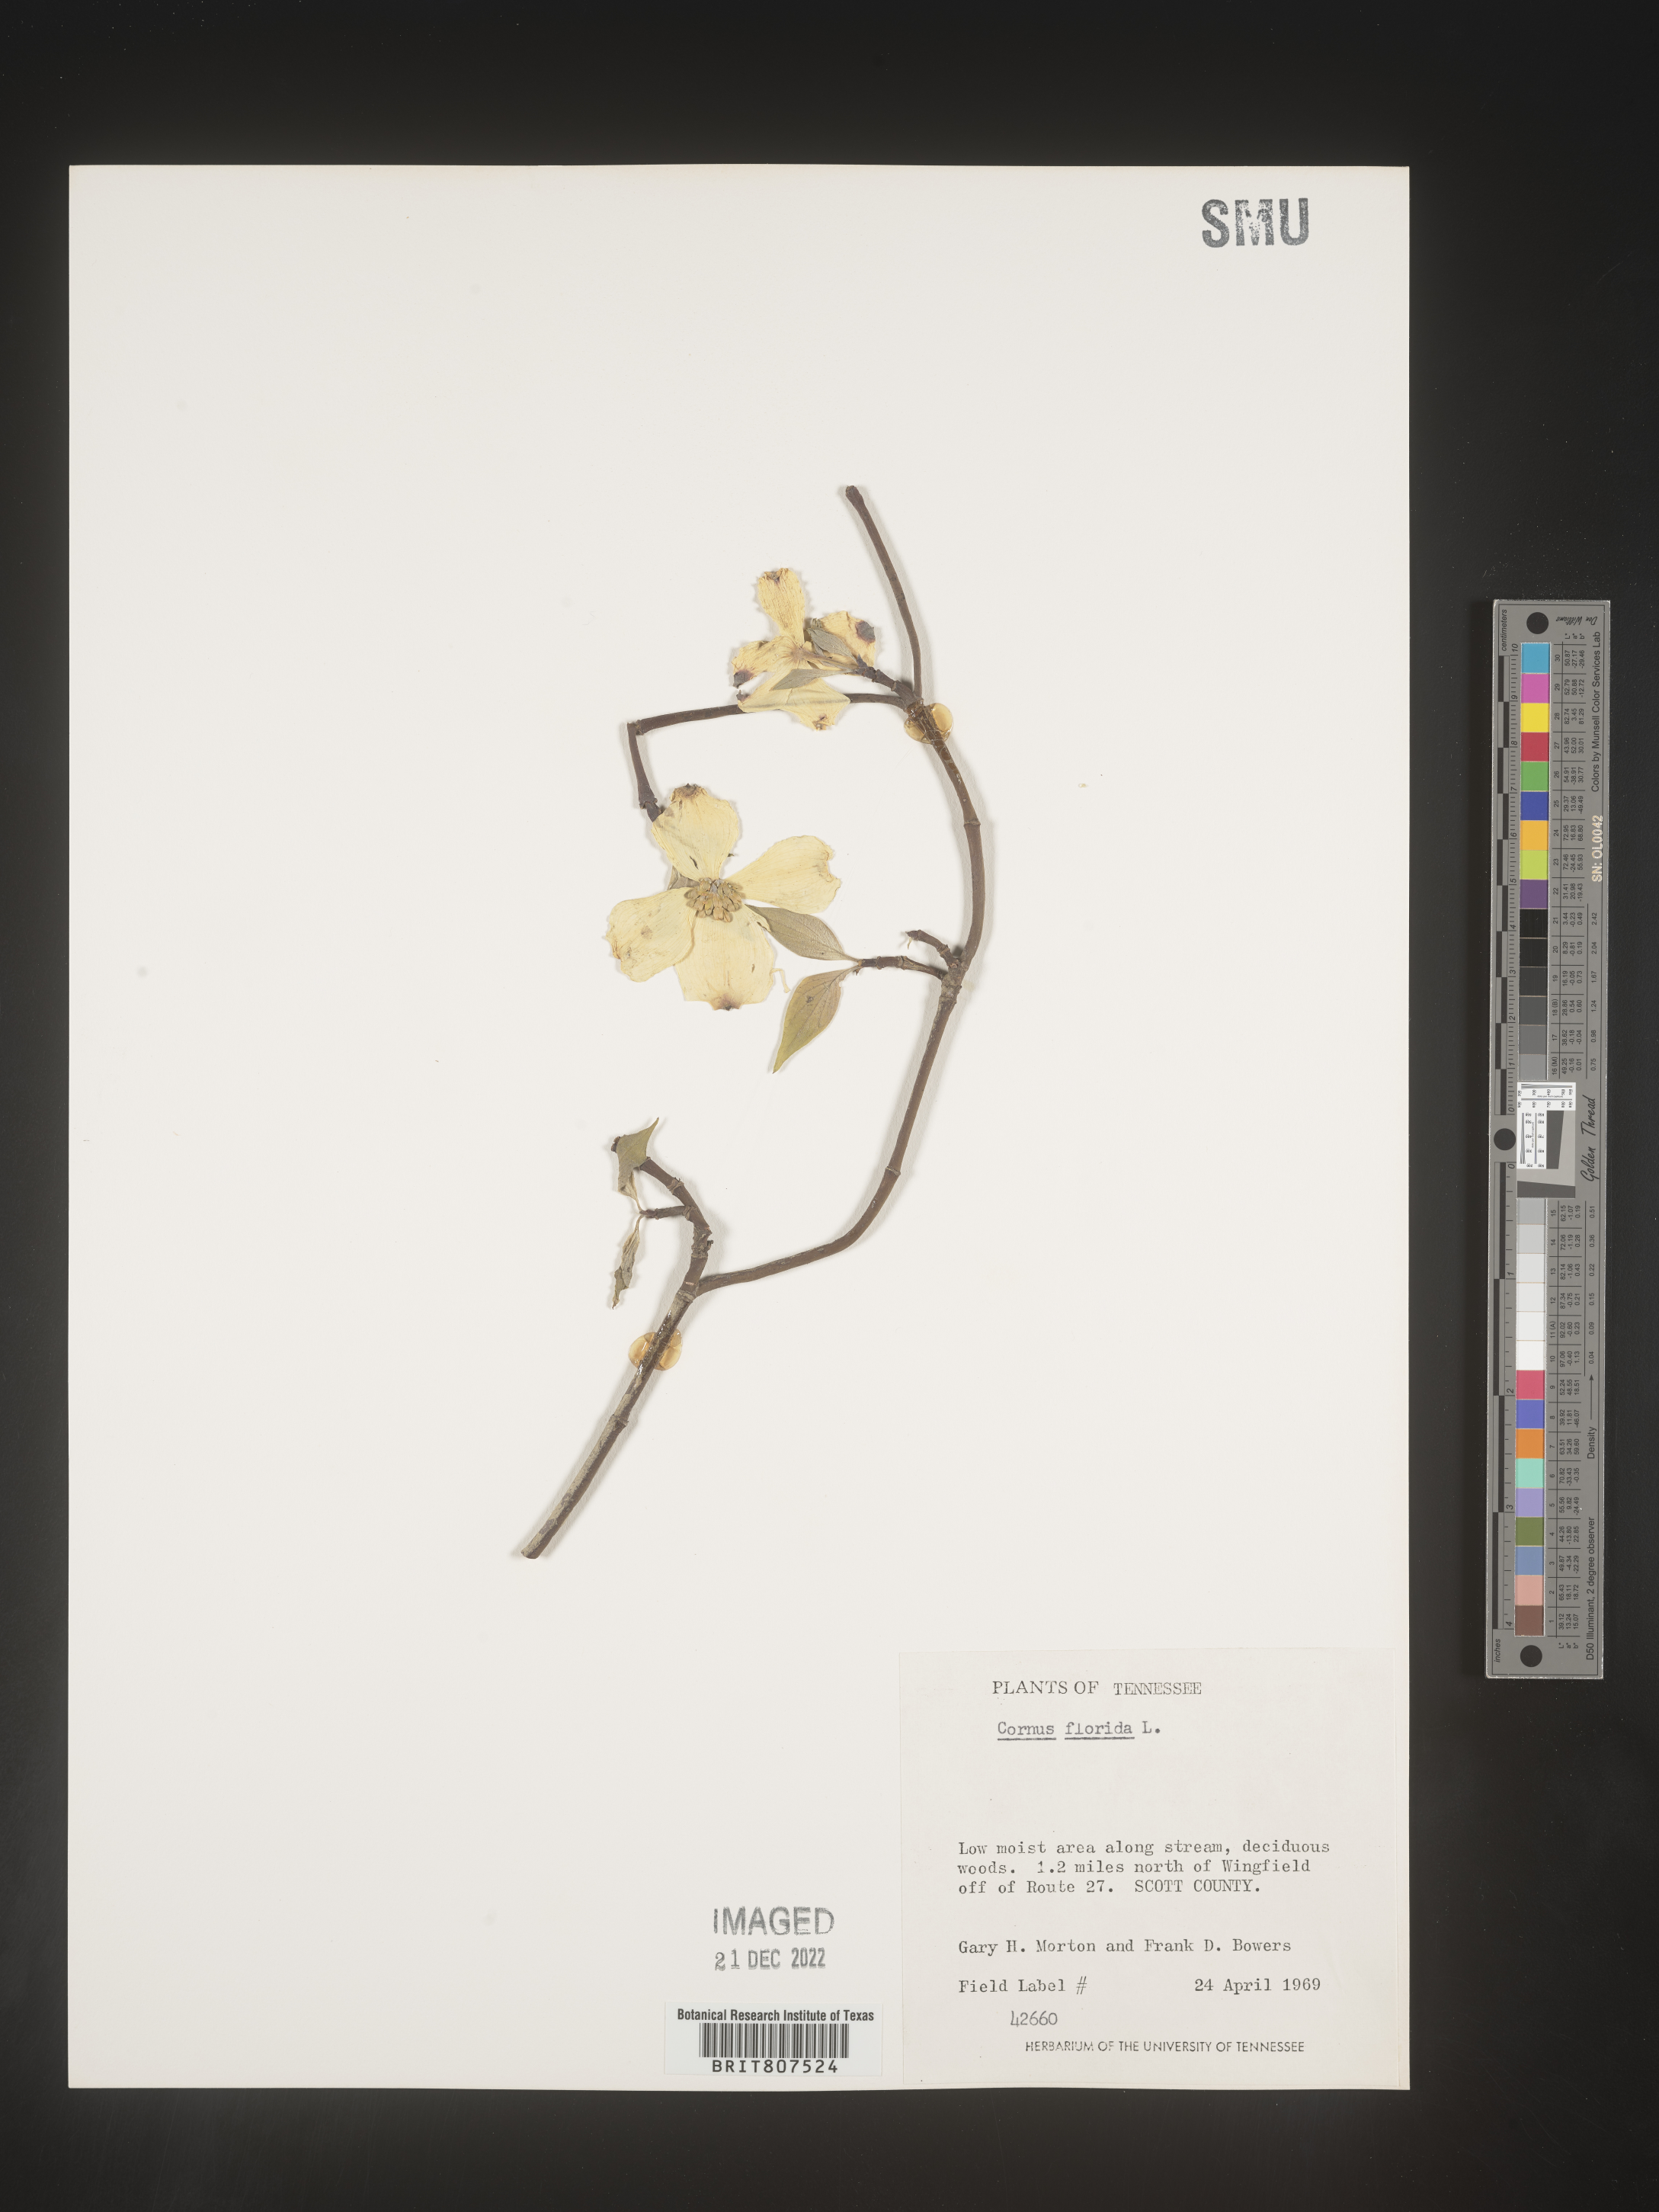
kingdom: Plantae
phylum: Tracheophyta
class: Magnoliopsida
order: Cornales
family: Cornaceae
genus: Cornus
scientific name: Cornus florida
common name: Flowering dogwood
